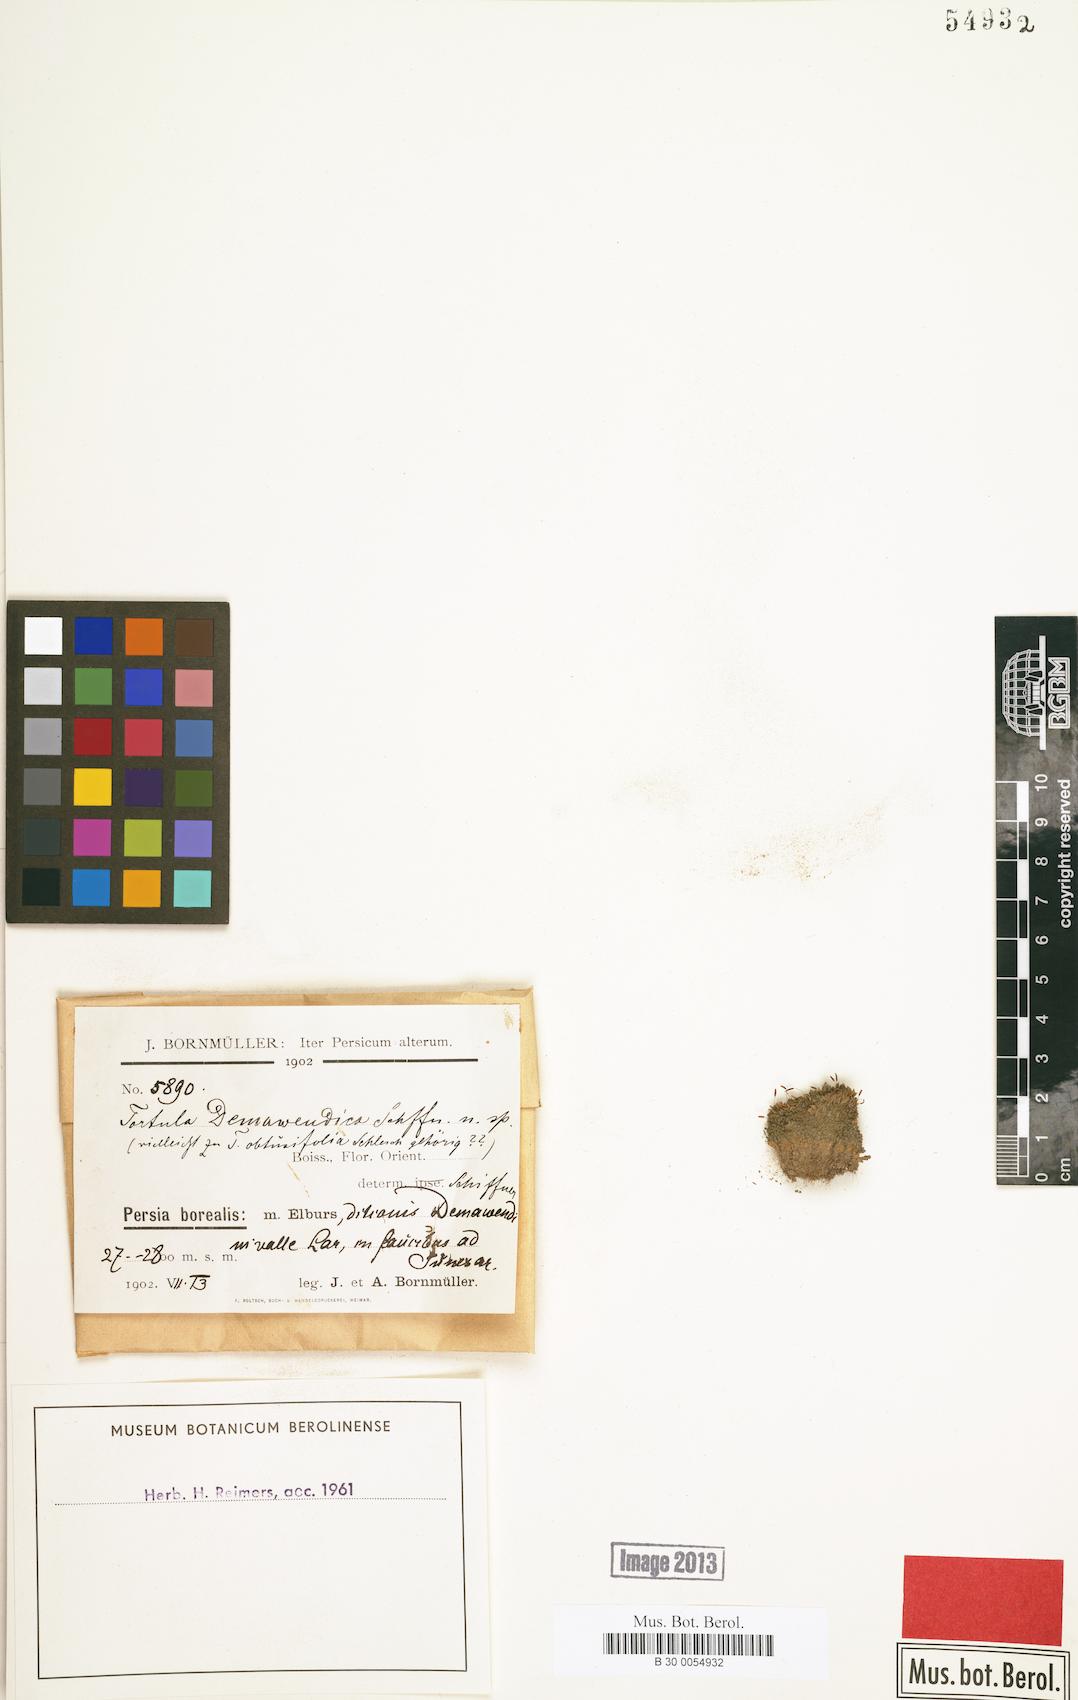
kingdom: Plantae
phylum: Bryophyta
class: Bryopsida
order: Pottiales
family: Pottiaceae
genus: Tortula
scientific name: Tortula demawendica
